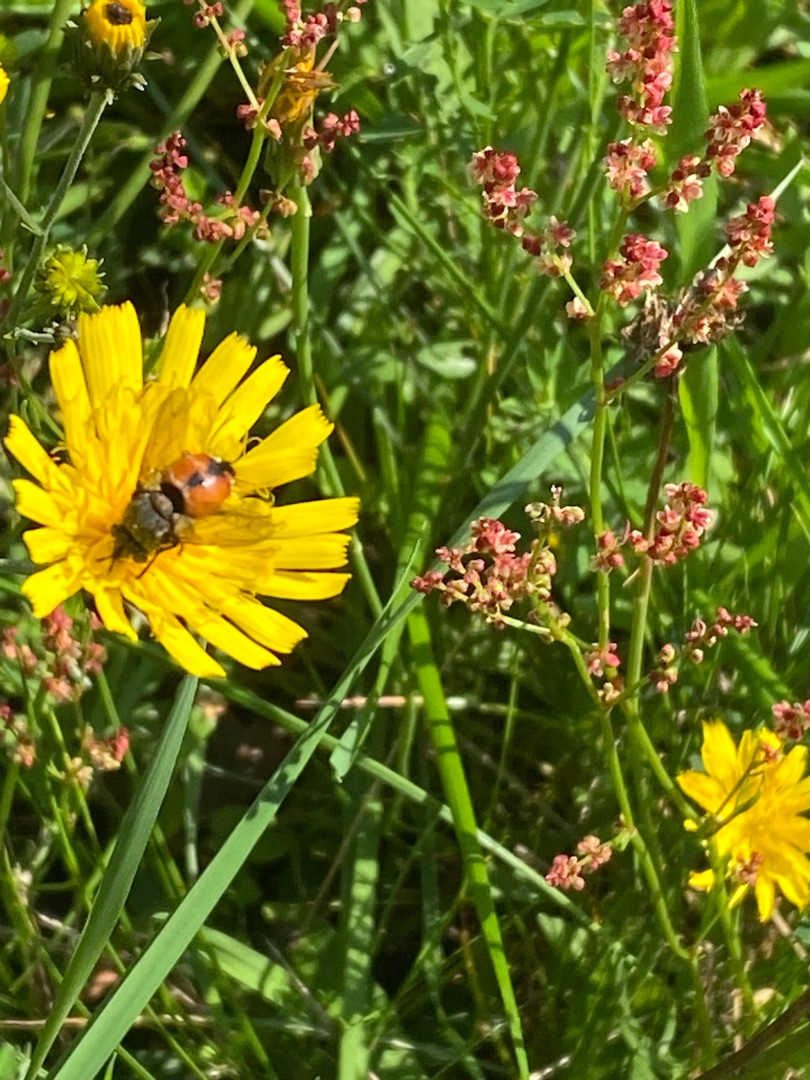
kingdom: Animalia
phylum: Arthropoda
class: Insecta
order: Diptera
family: Tachinidae
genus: Peleteria
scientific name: Peleteria rubescens
